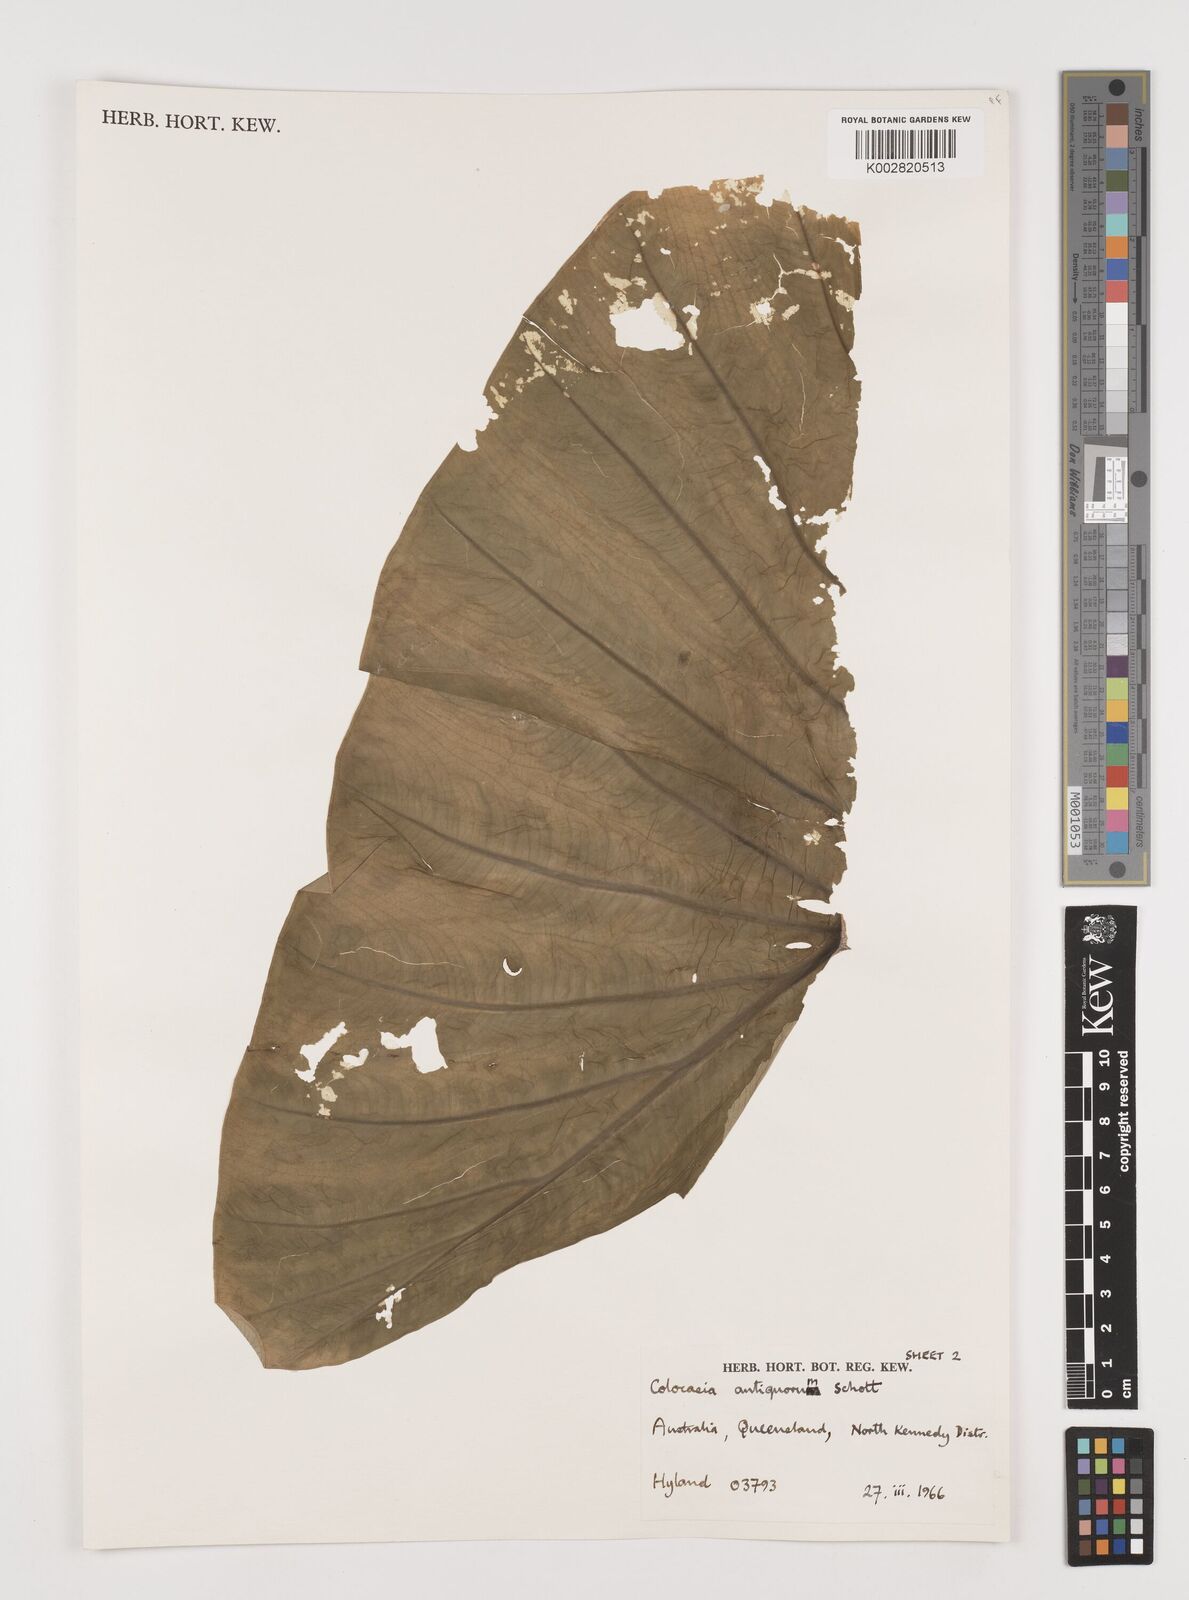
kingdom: Plantae
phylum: Tracheophyta
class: Liliopsida
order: Alismatales
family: Araceae
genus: Colocasia
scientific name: Colocasia esculenta
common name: Taro
